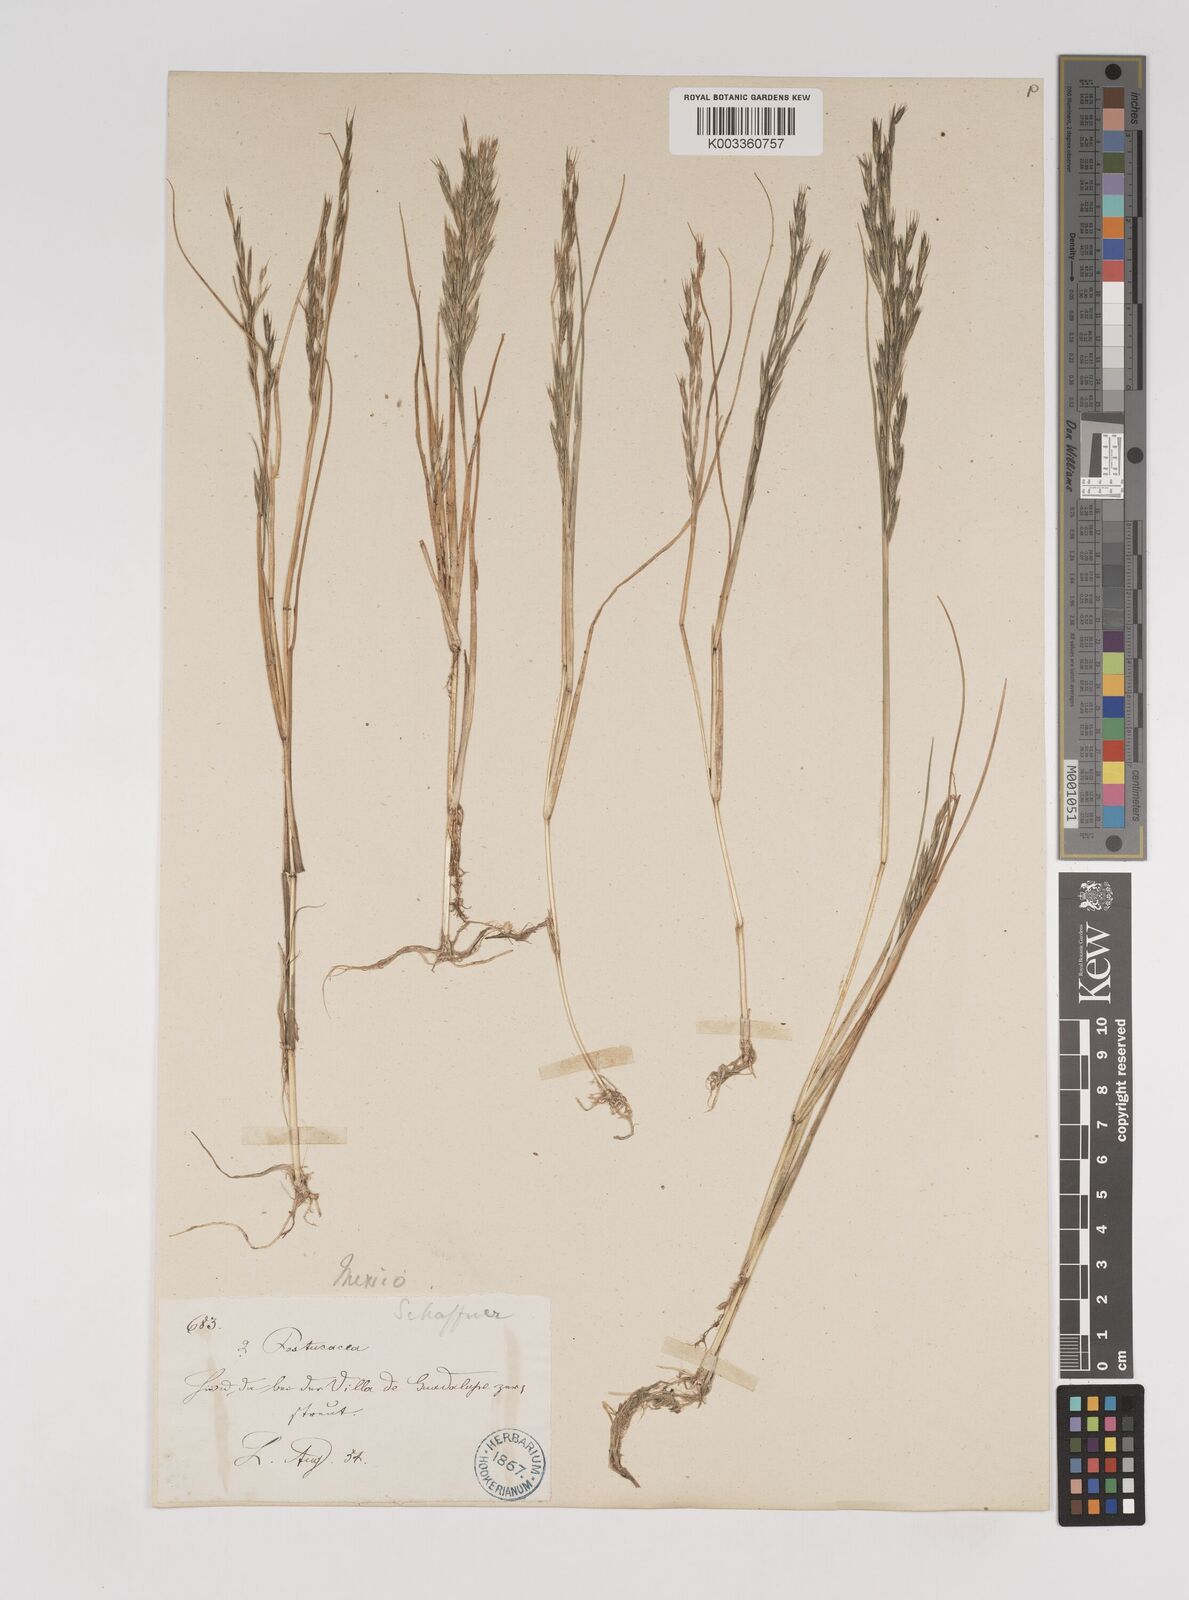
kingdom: Plantae
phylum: Tracheophyta
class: Liliopsida
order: Poales
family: Poaceae
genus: Gouinia
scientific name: Gouinia
